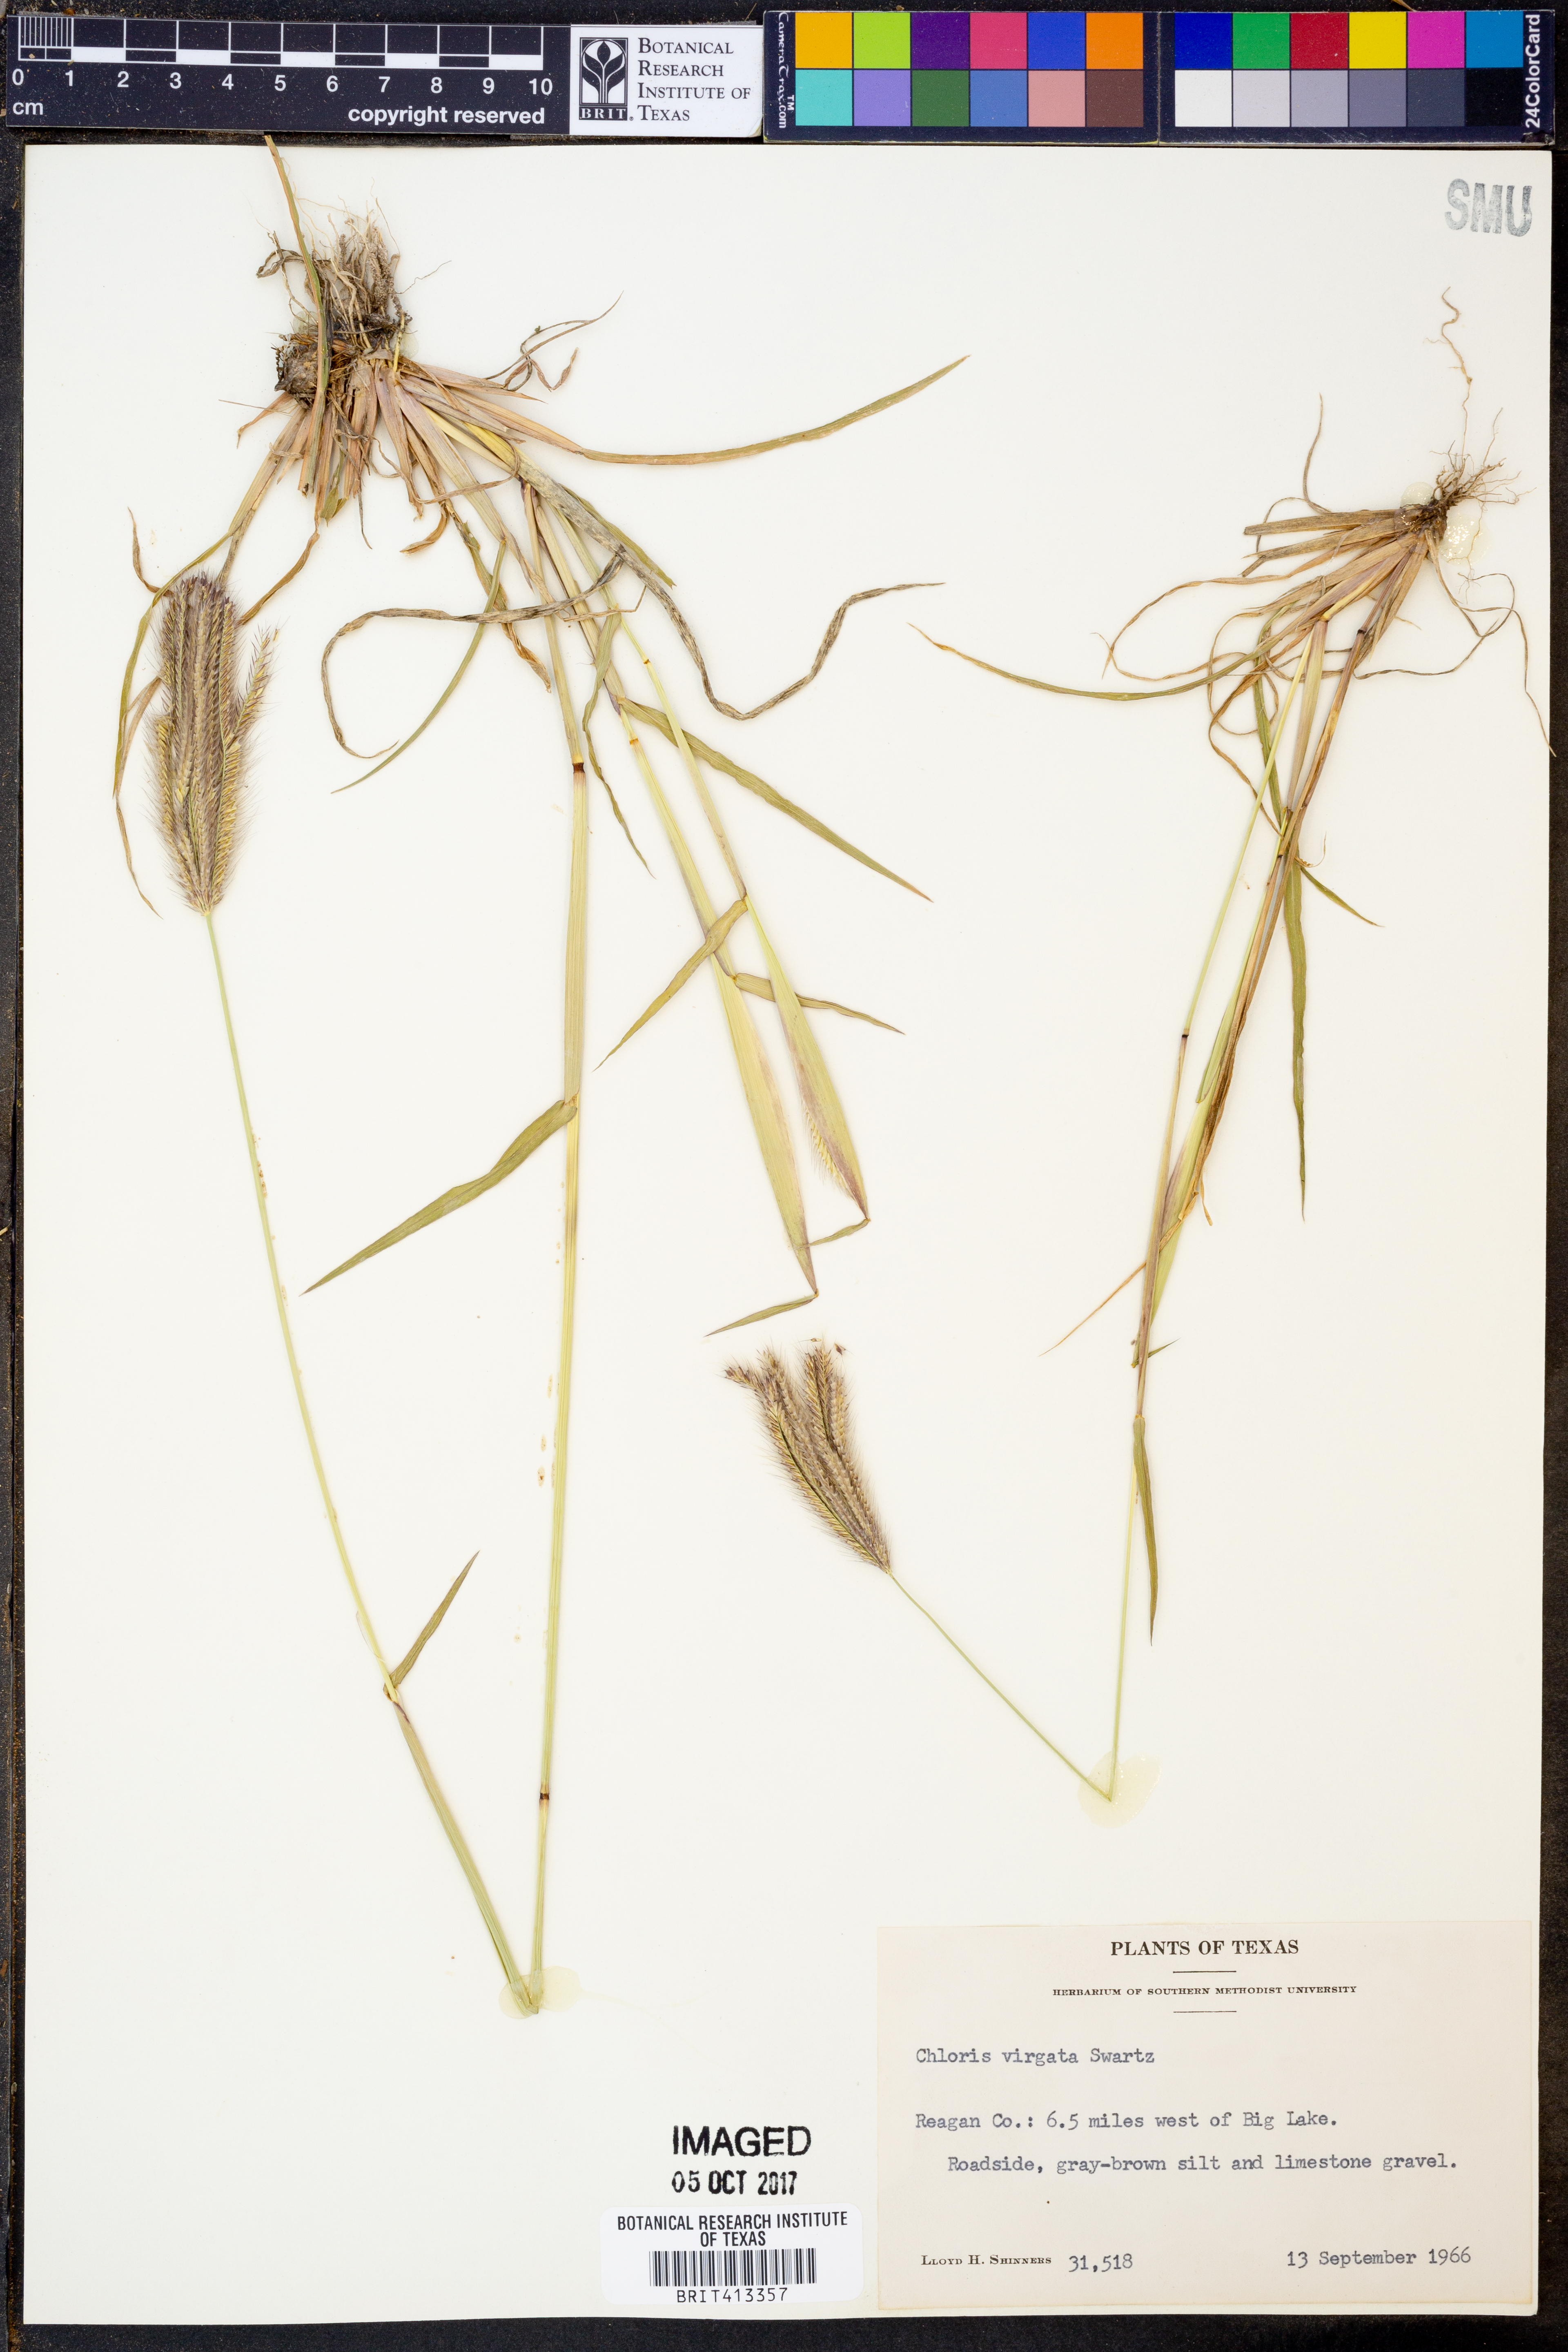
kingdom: Plantae
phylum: Tracheophyta
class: Liliopsida
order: Poales
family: Poaceae
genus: Chloris
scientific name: Chloris virgata
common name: Feathery rhodes-grass
